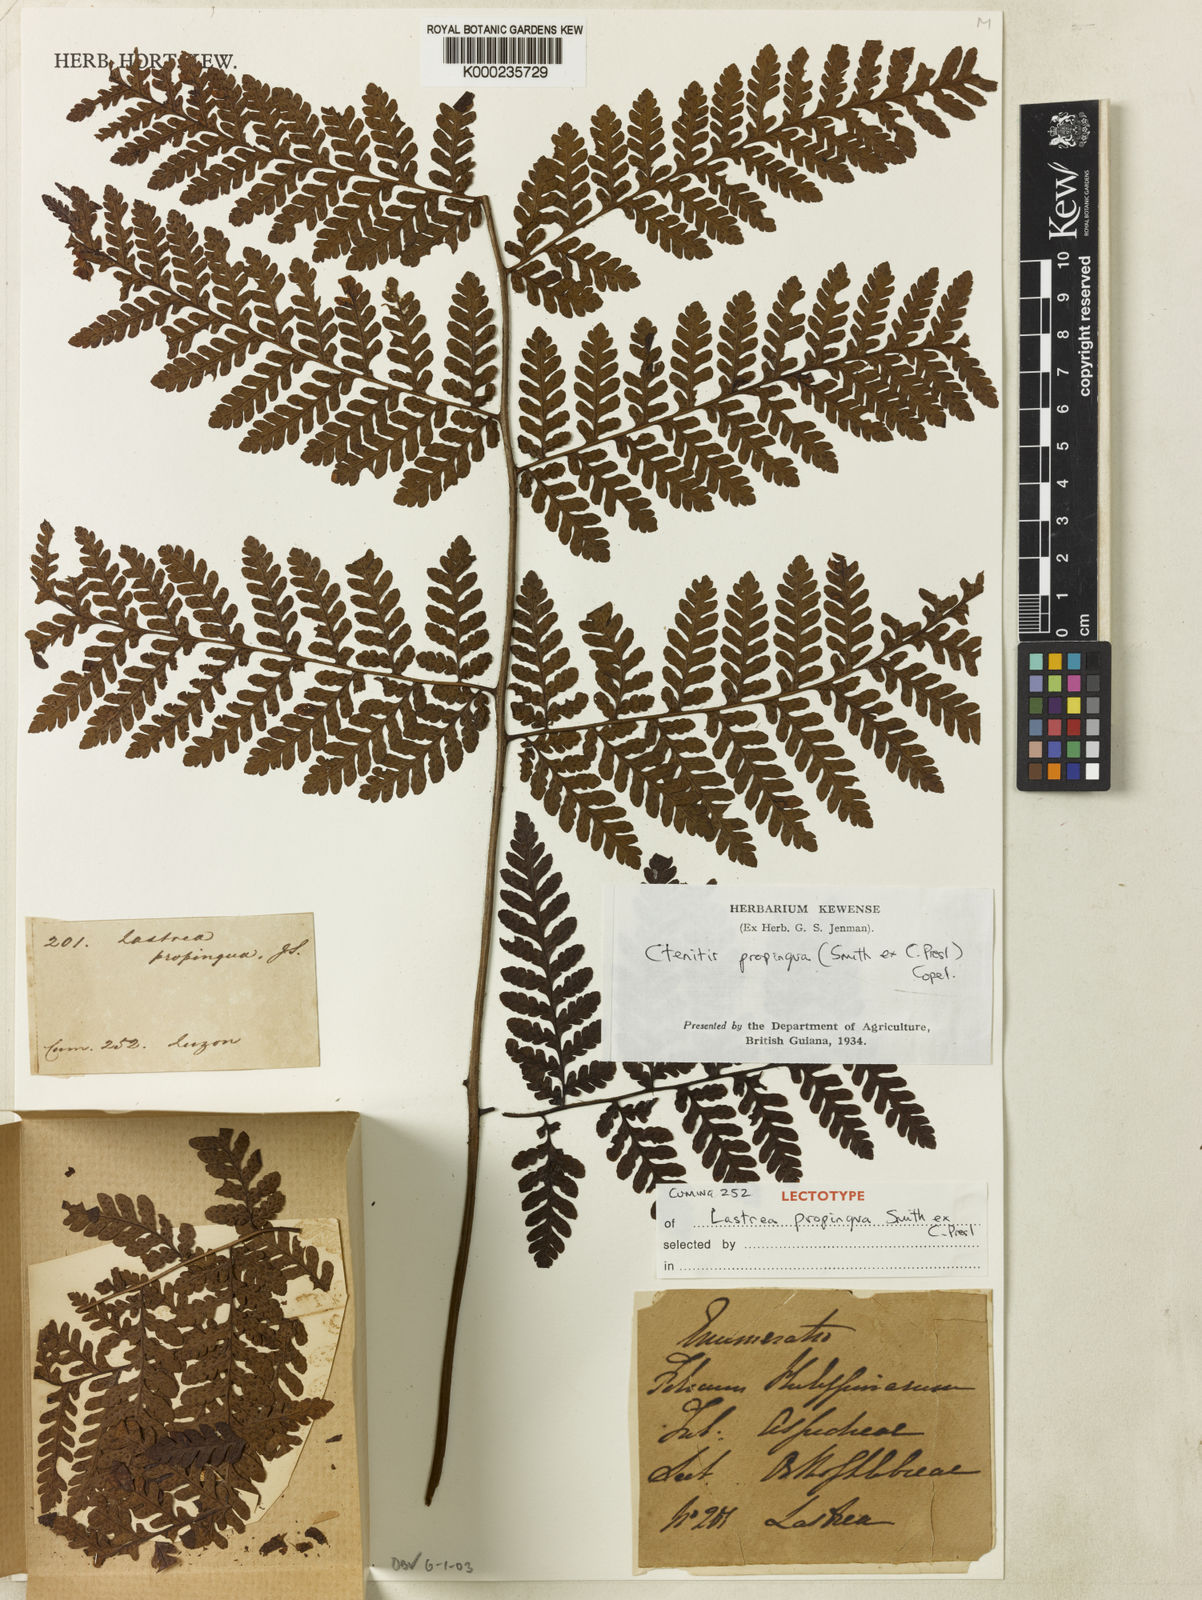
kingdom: Plantae
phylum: Tracheophyta
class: Polypodiopsida
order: Polypodiales
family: Dryopteridaceae
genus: Ctenitis
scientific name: Ctenitis propinqua
